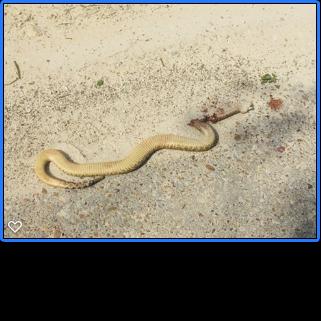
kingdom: Animalia
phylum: Chordata
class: Squamata
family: Viperidae
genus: Crotalus
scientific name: Crotalus
